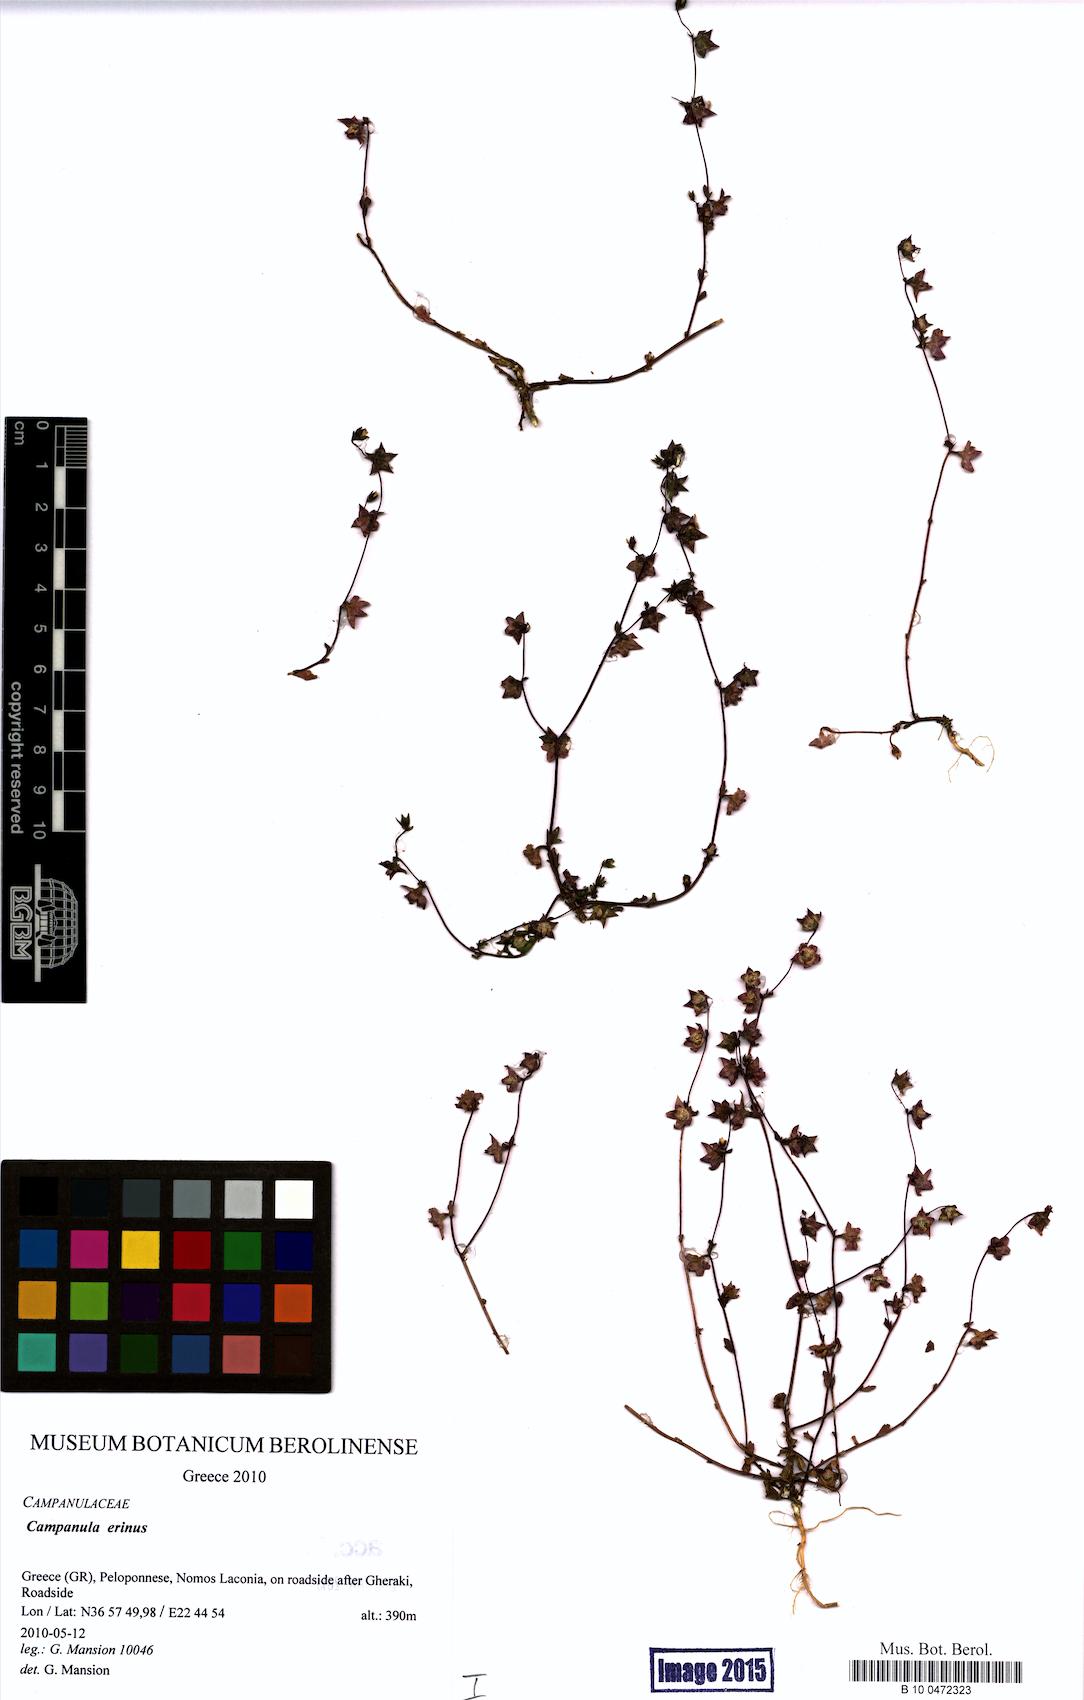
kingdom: Plantae
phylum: Tracheophyta
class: Magnoliopsida
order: Asterales
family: Campanulaceae
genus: Campanula
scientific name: Campanula erinus
